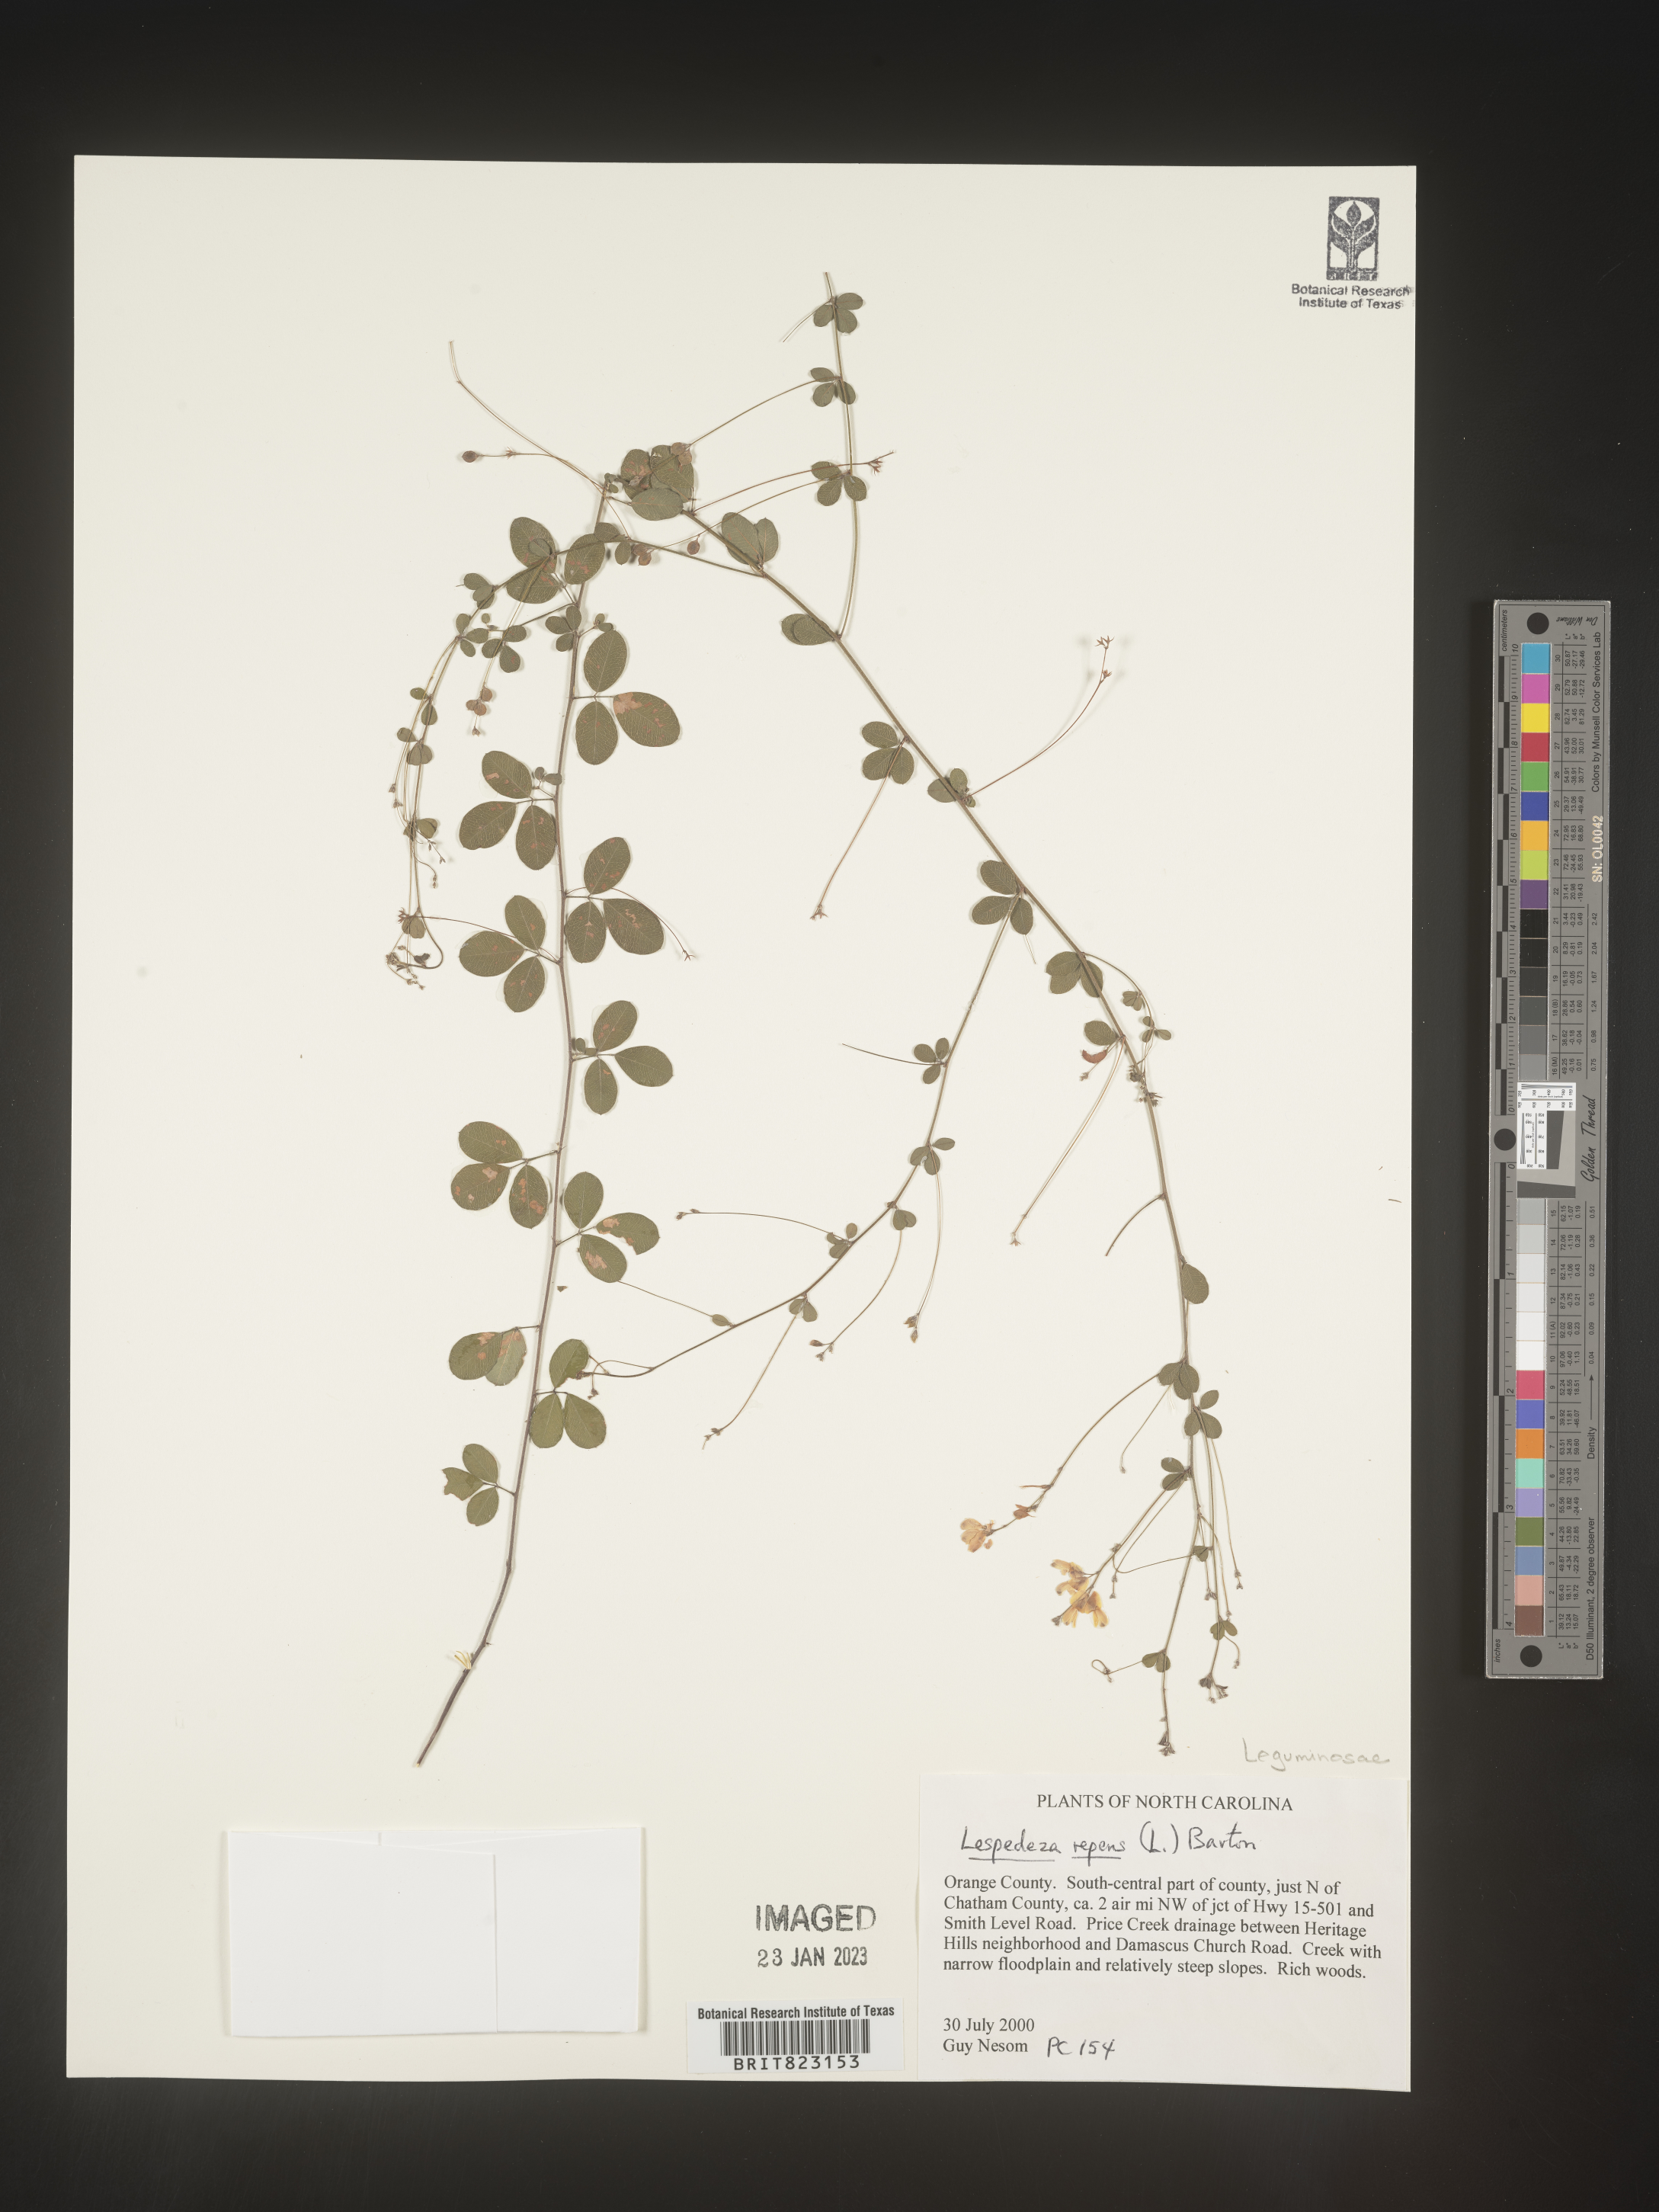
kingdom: Plantae
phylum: Tracheophyta
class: Magnoliopsida
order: Fabales
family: Fabaceae
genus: Lespedeza
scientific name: Lespedeza repens
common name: Creeping bush-clover
